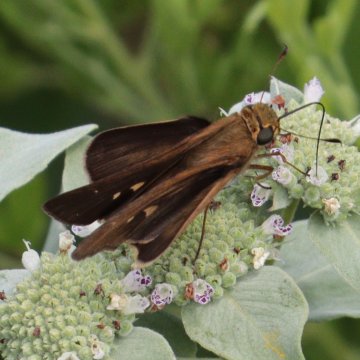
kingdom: Animalia
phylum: Arthropoda
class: Insecta
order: Lepidoptera
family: Hesperiidae
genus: Panoquina
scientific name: Panoquina ocola
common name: Ocola Skipper
